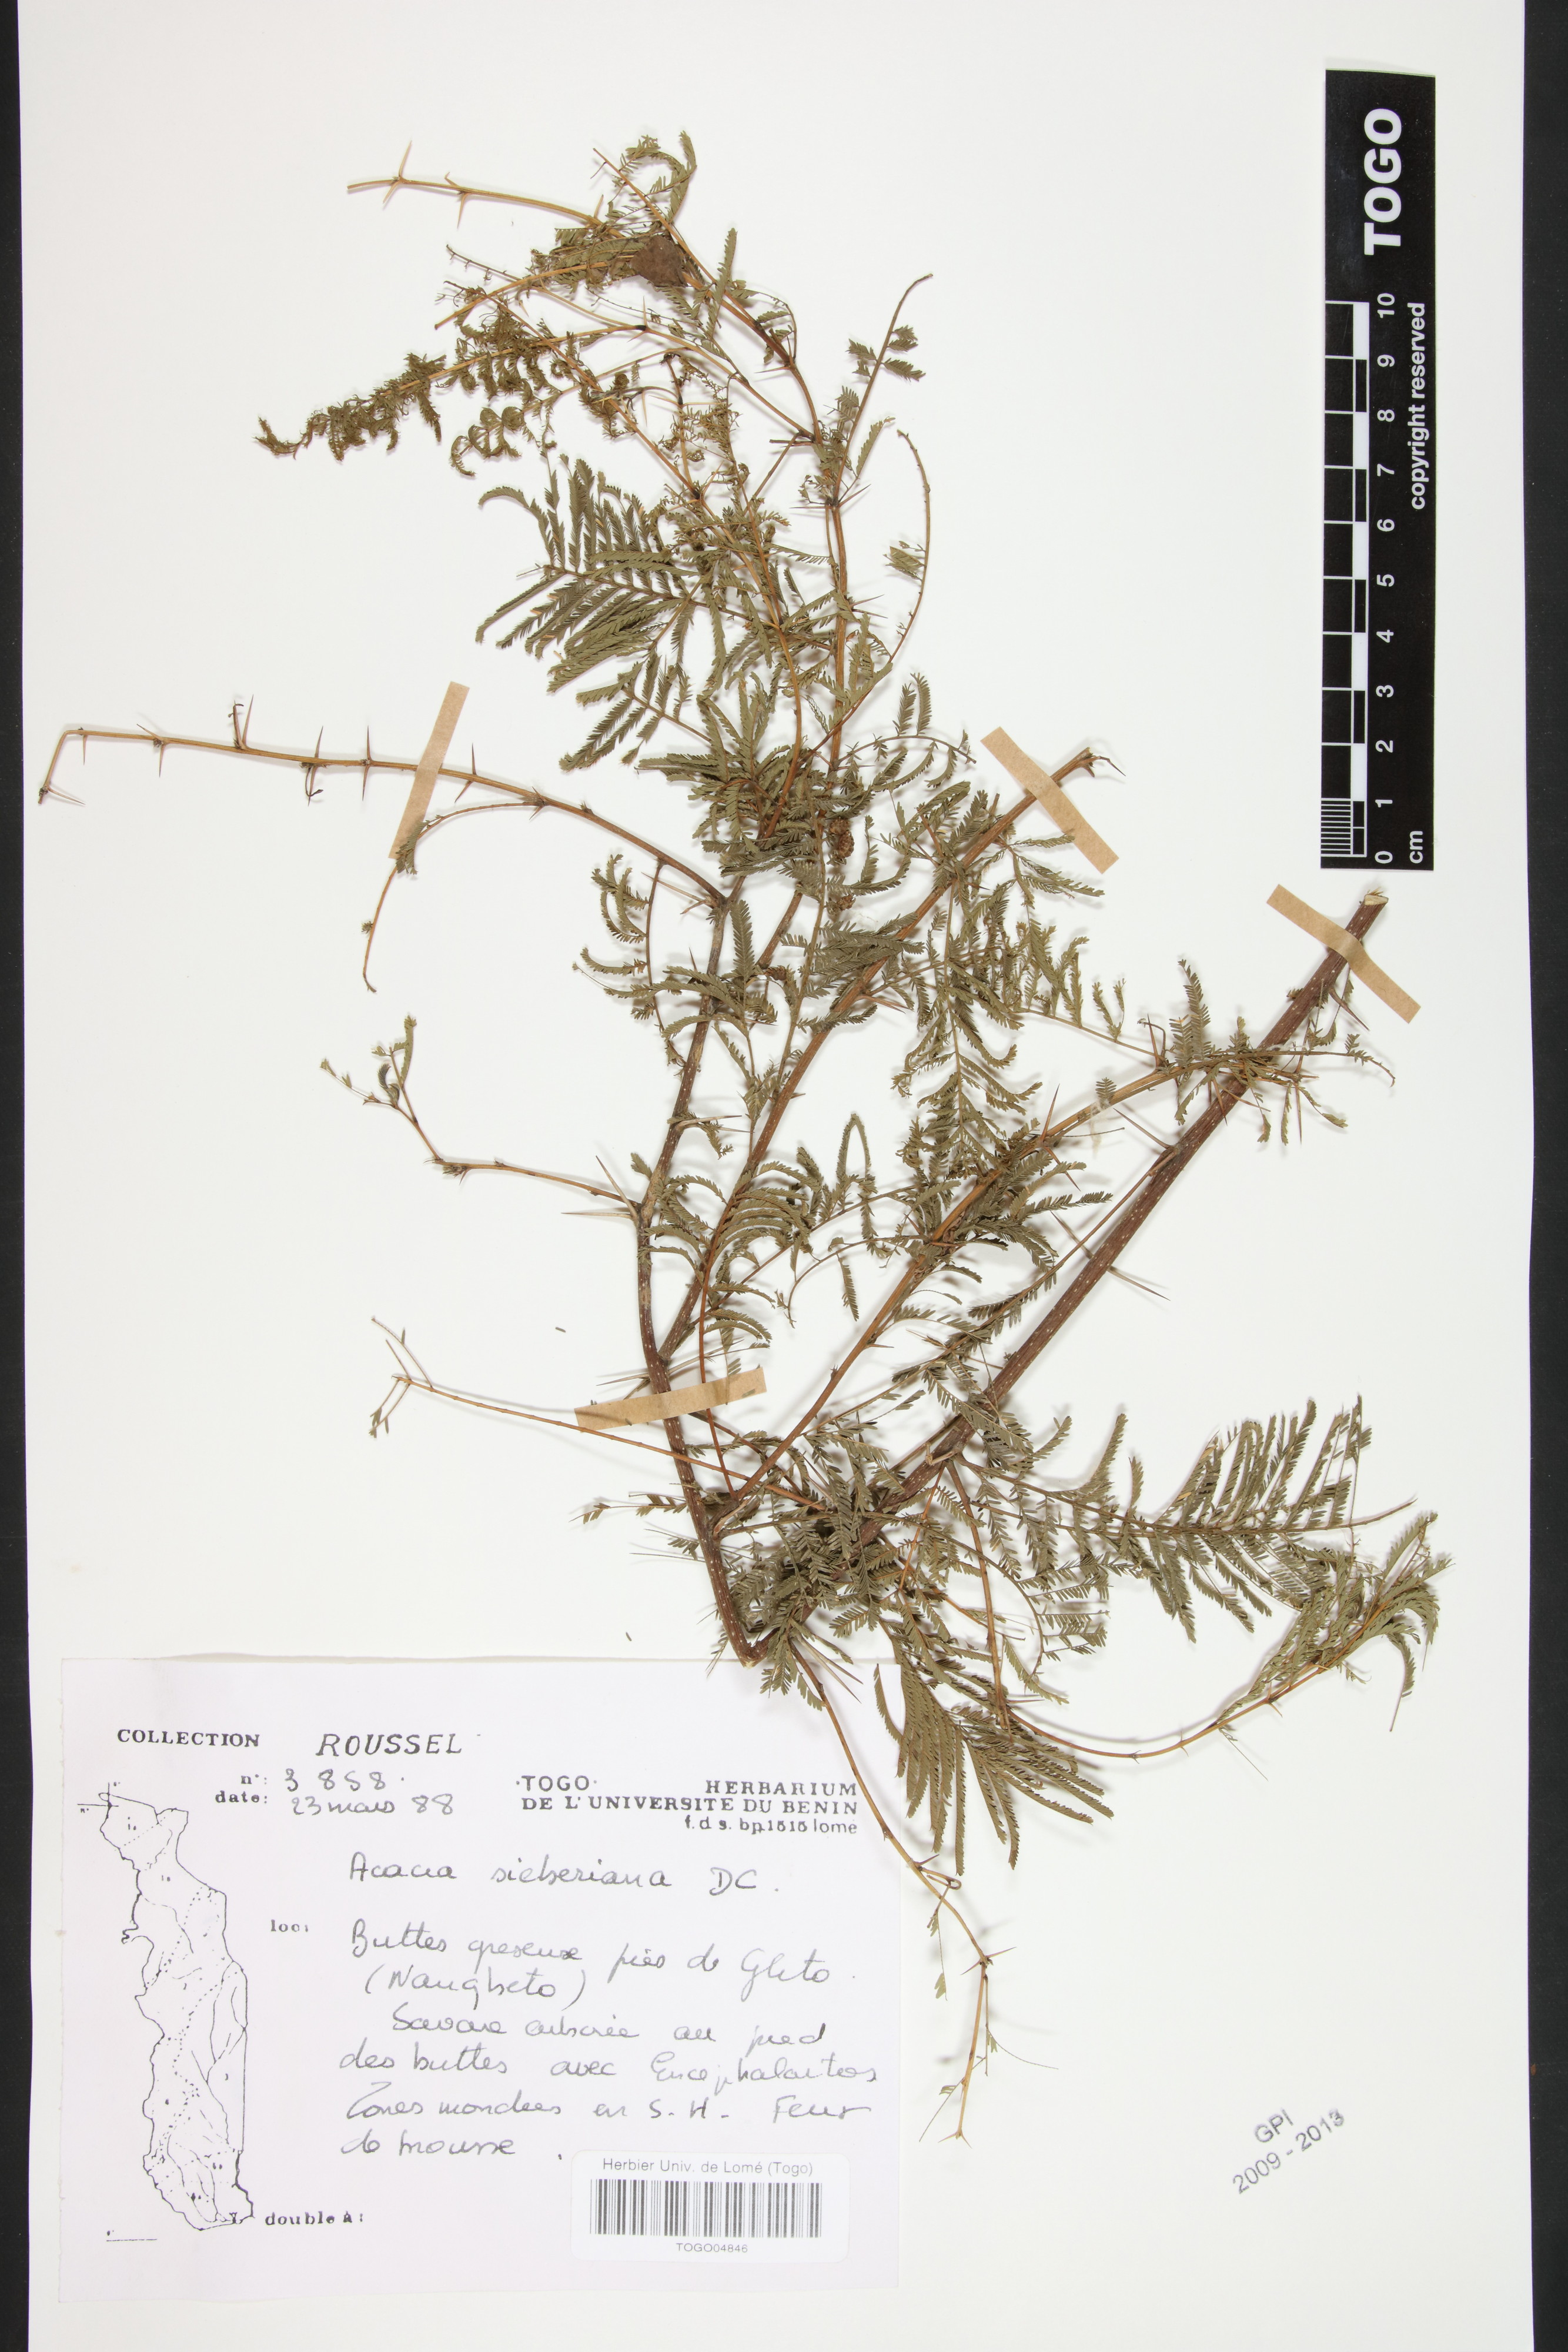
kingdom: Plantae
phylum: Tracheophyta
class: Magnoliopsida
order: Fabales
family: Fabaceae
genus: Vachellia
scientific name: Vachellia sieberiana
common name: Flat-topped thorn
